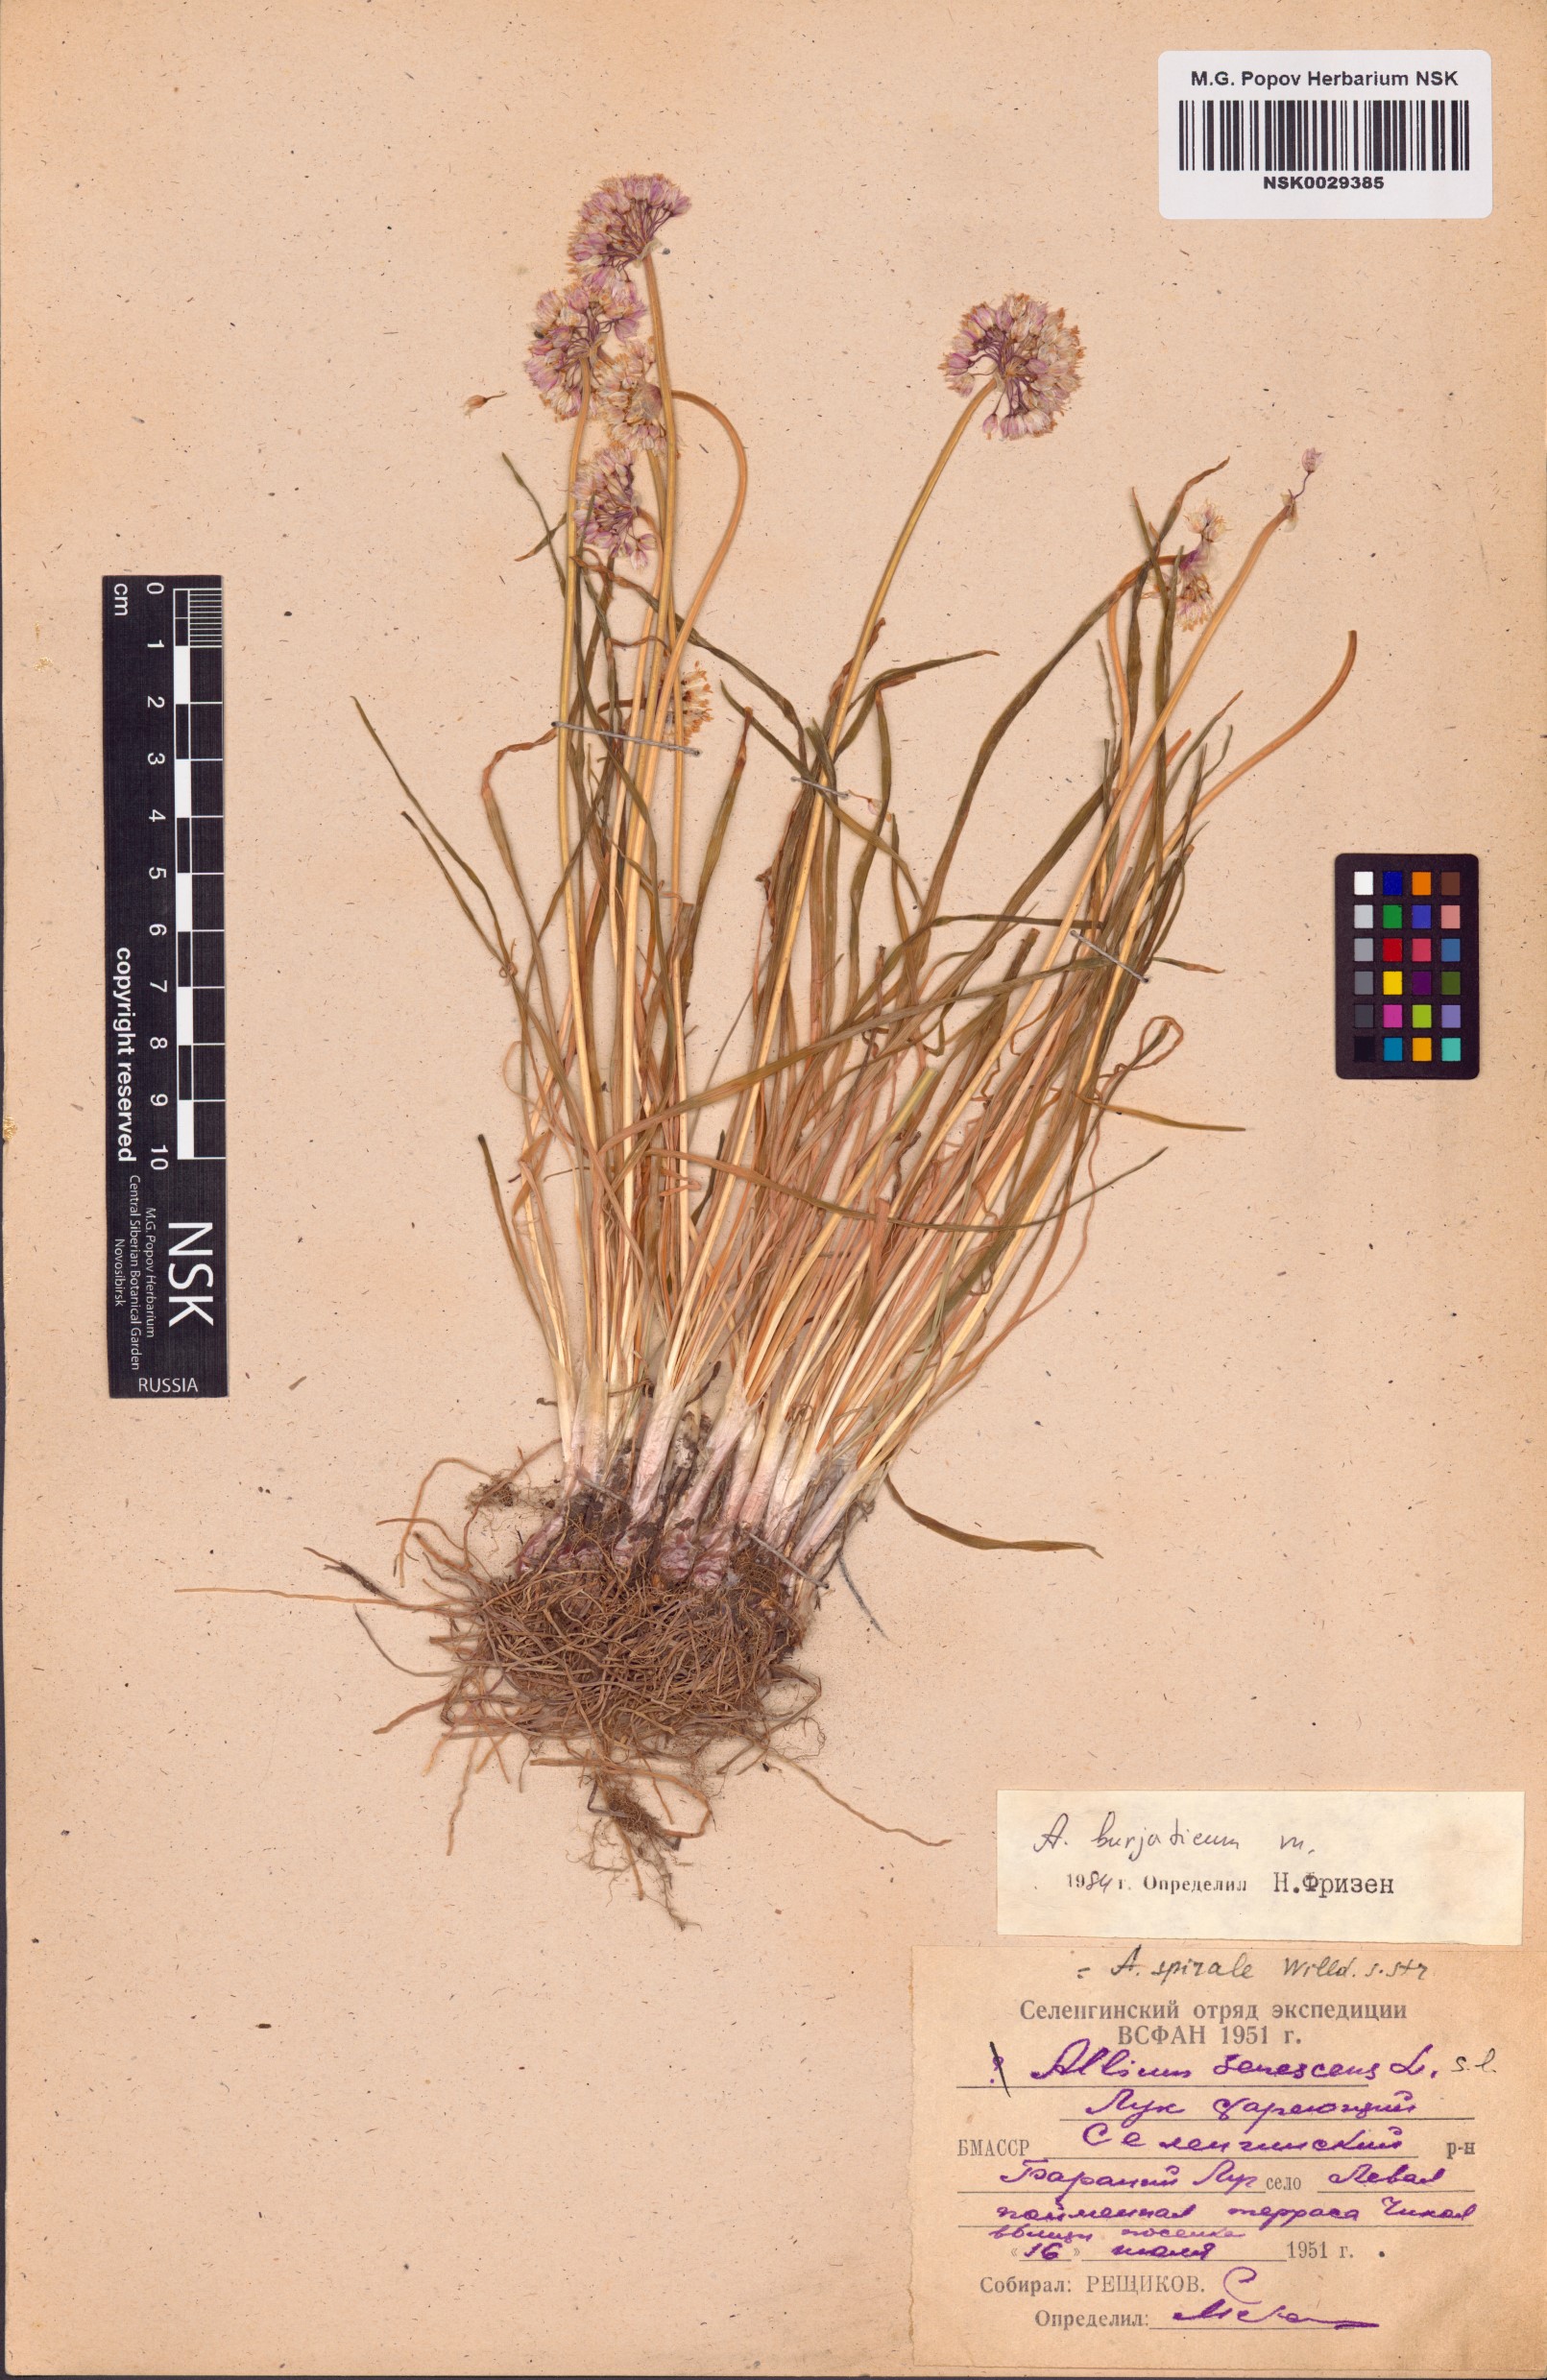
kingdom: Plantae
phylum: Tracheophyta
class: Liliopsida
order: Asparagales
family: Amaryllidaceae
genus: Allium
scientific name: Allium burjaticum
